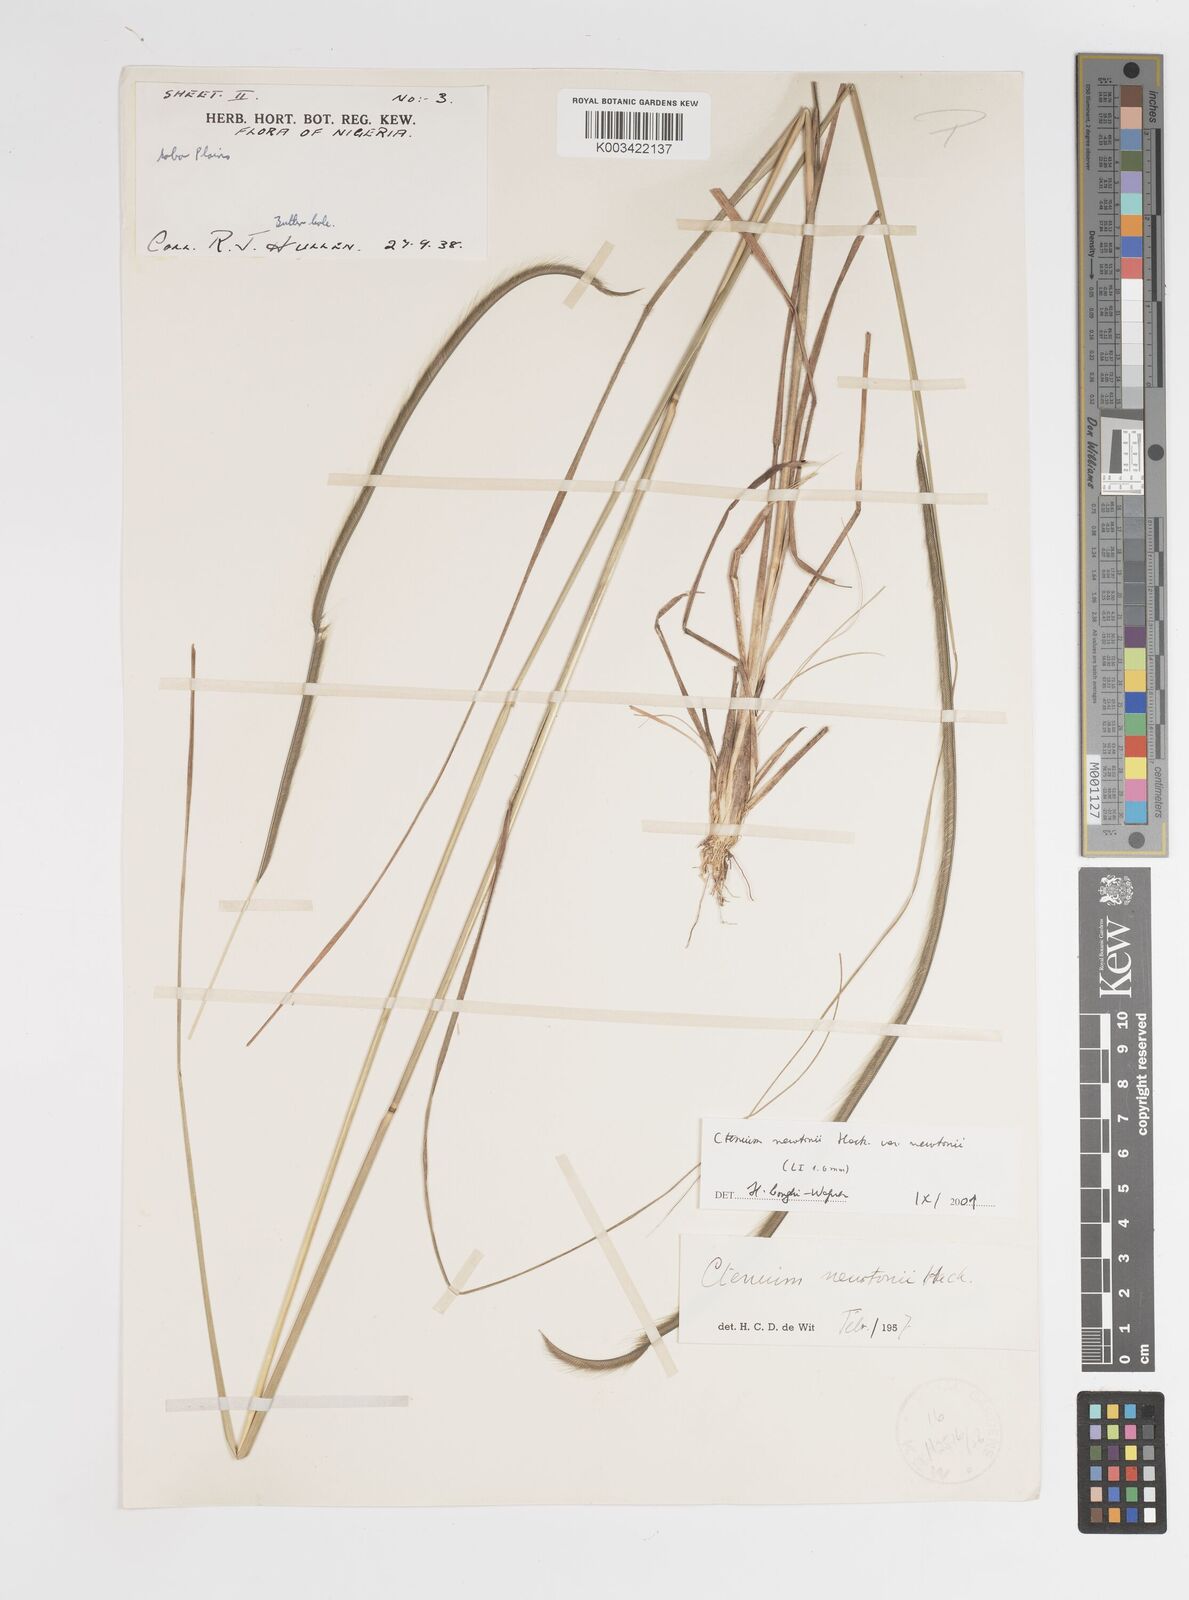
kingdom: Plantae
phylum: Tracheophyta
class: Liliopsida
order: Poales
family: Poaceae
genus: Ctenium
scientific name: Ctenium newtonii
